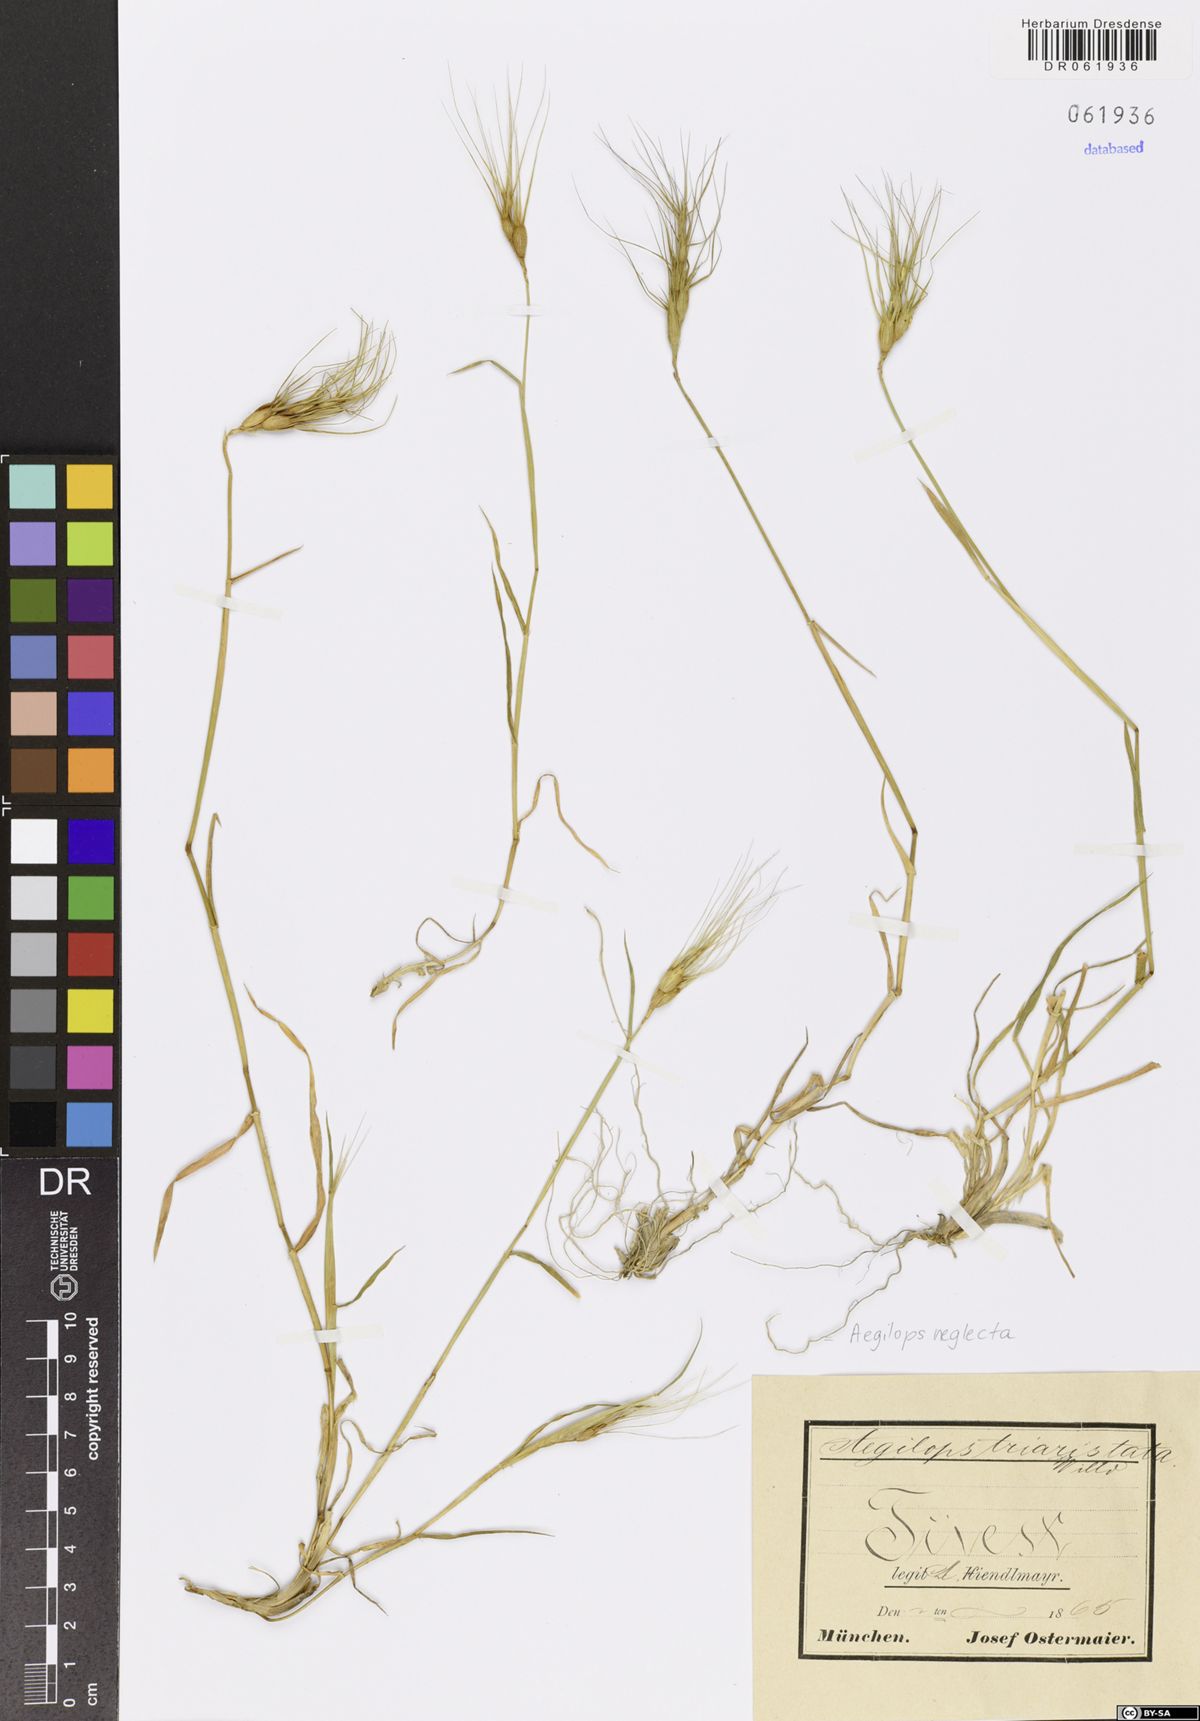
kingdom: Plantae
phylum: Tracheophyta
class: Liliopsida
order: Poales
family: Poaceae
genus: Aegilops
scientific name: Aegilops neglecta
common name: Three-awn goat grass
